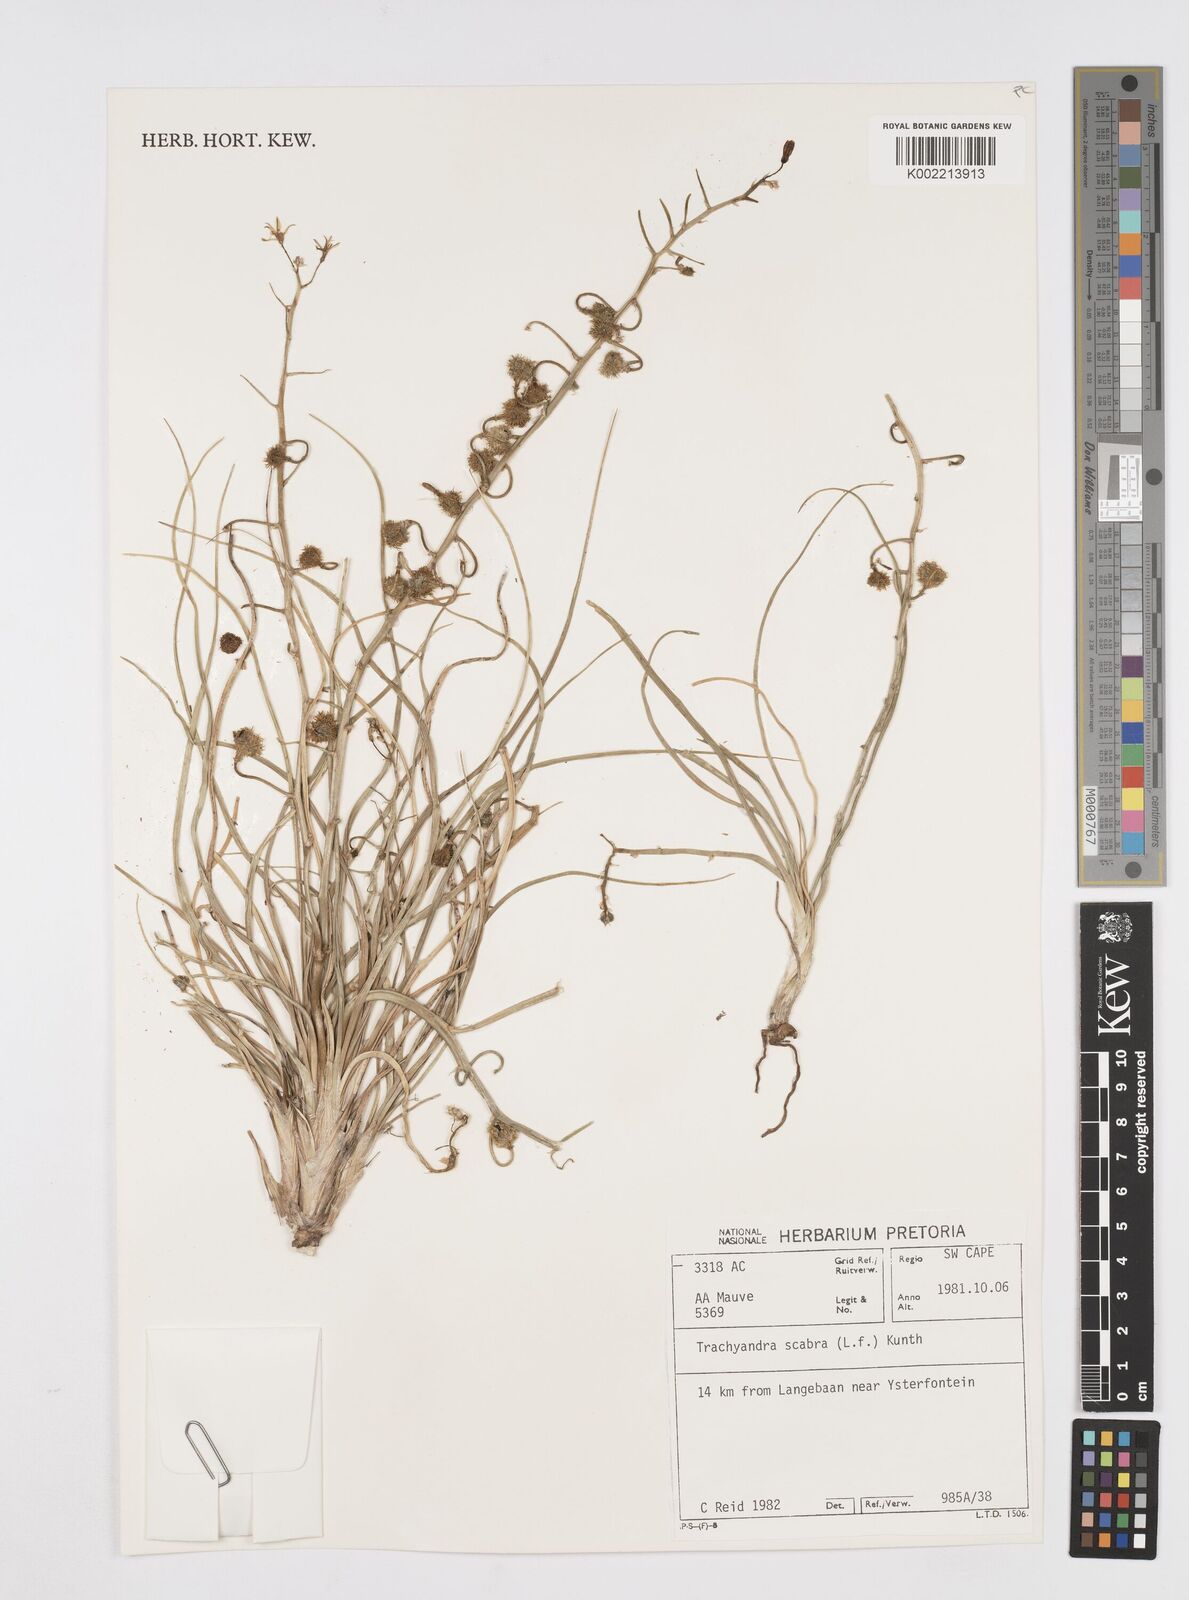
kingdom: Plantae
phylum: Tracheophyta
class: Liliopsida
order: Asparagales
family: Asphodelaceae
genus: Trachyandra
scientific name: Trachyandra scabra
